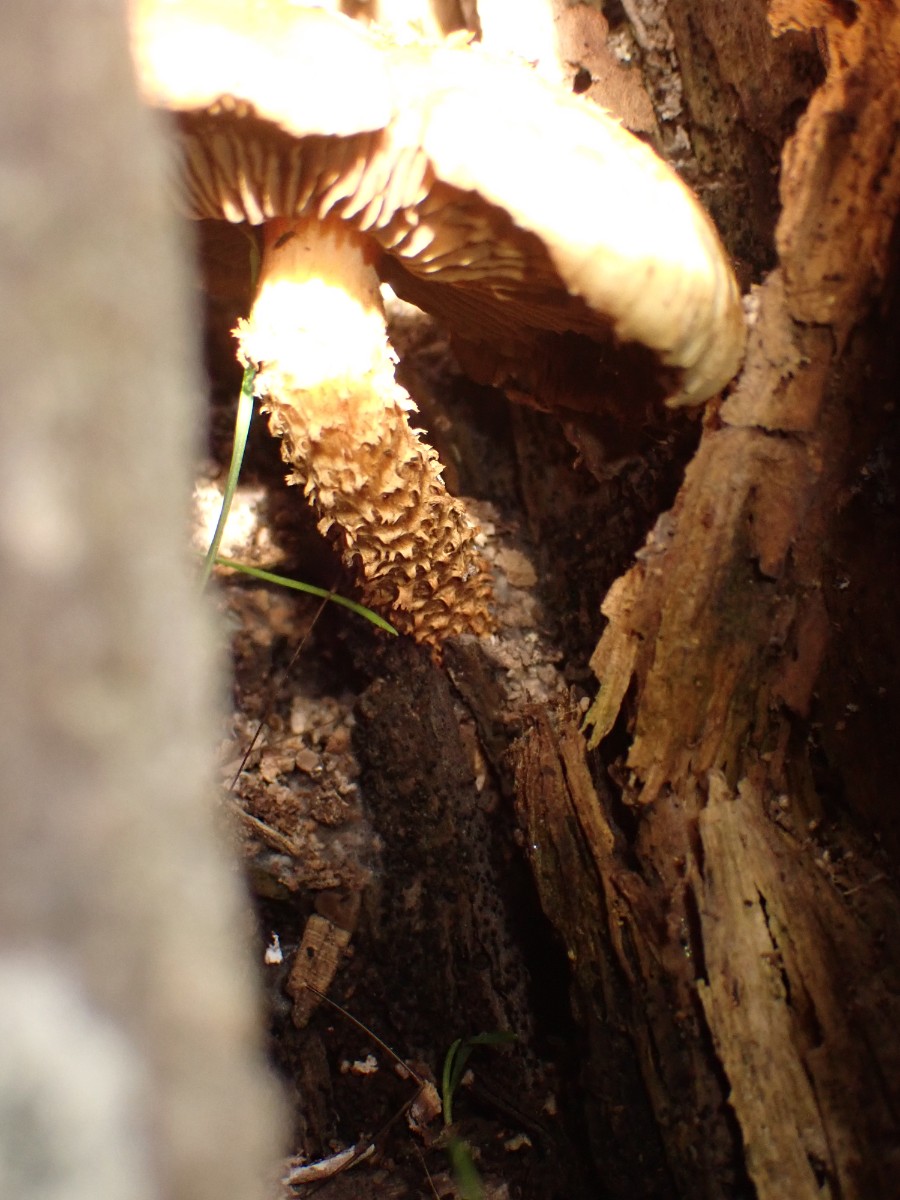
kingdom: Fungi
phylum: Basidiomycota
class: Agaricomycetes
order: Agaricales
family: Strophariaceae
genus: Pholiota
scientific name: Pholiota squarrosa
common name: krumskællet skælhat
